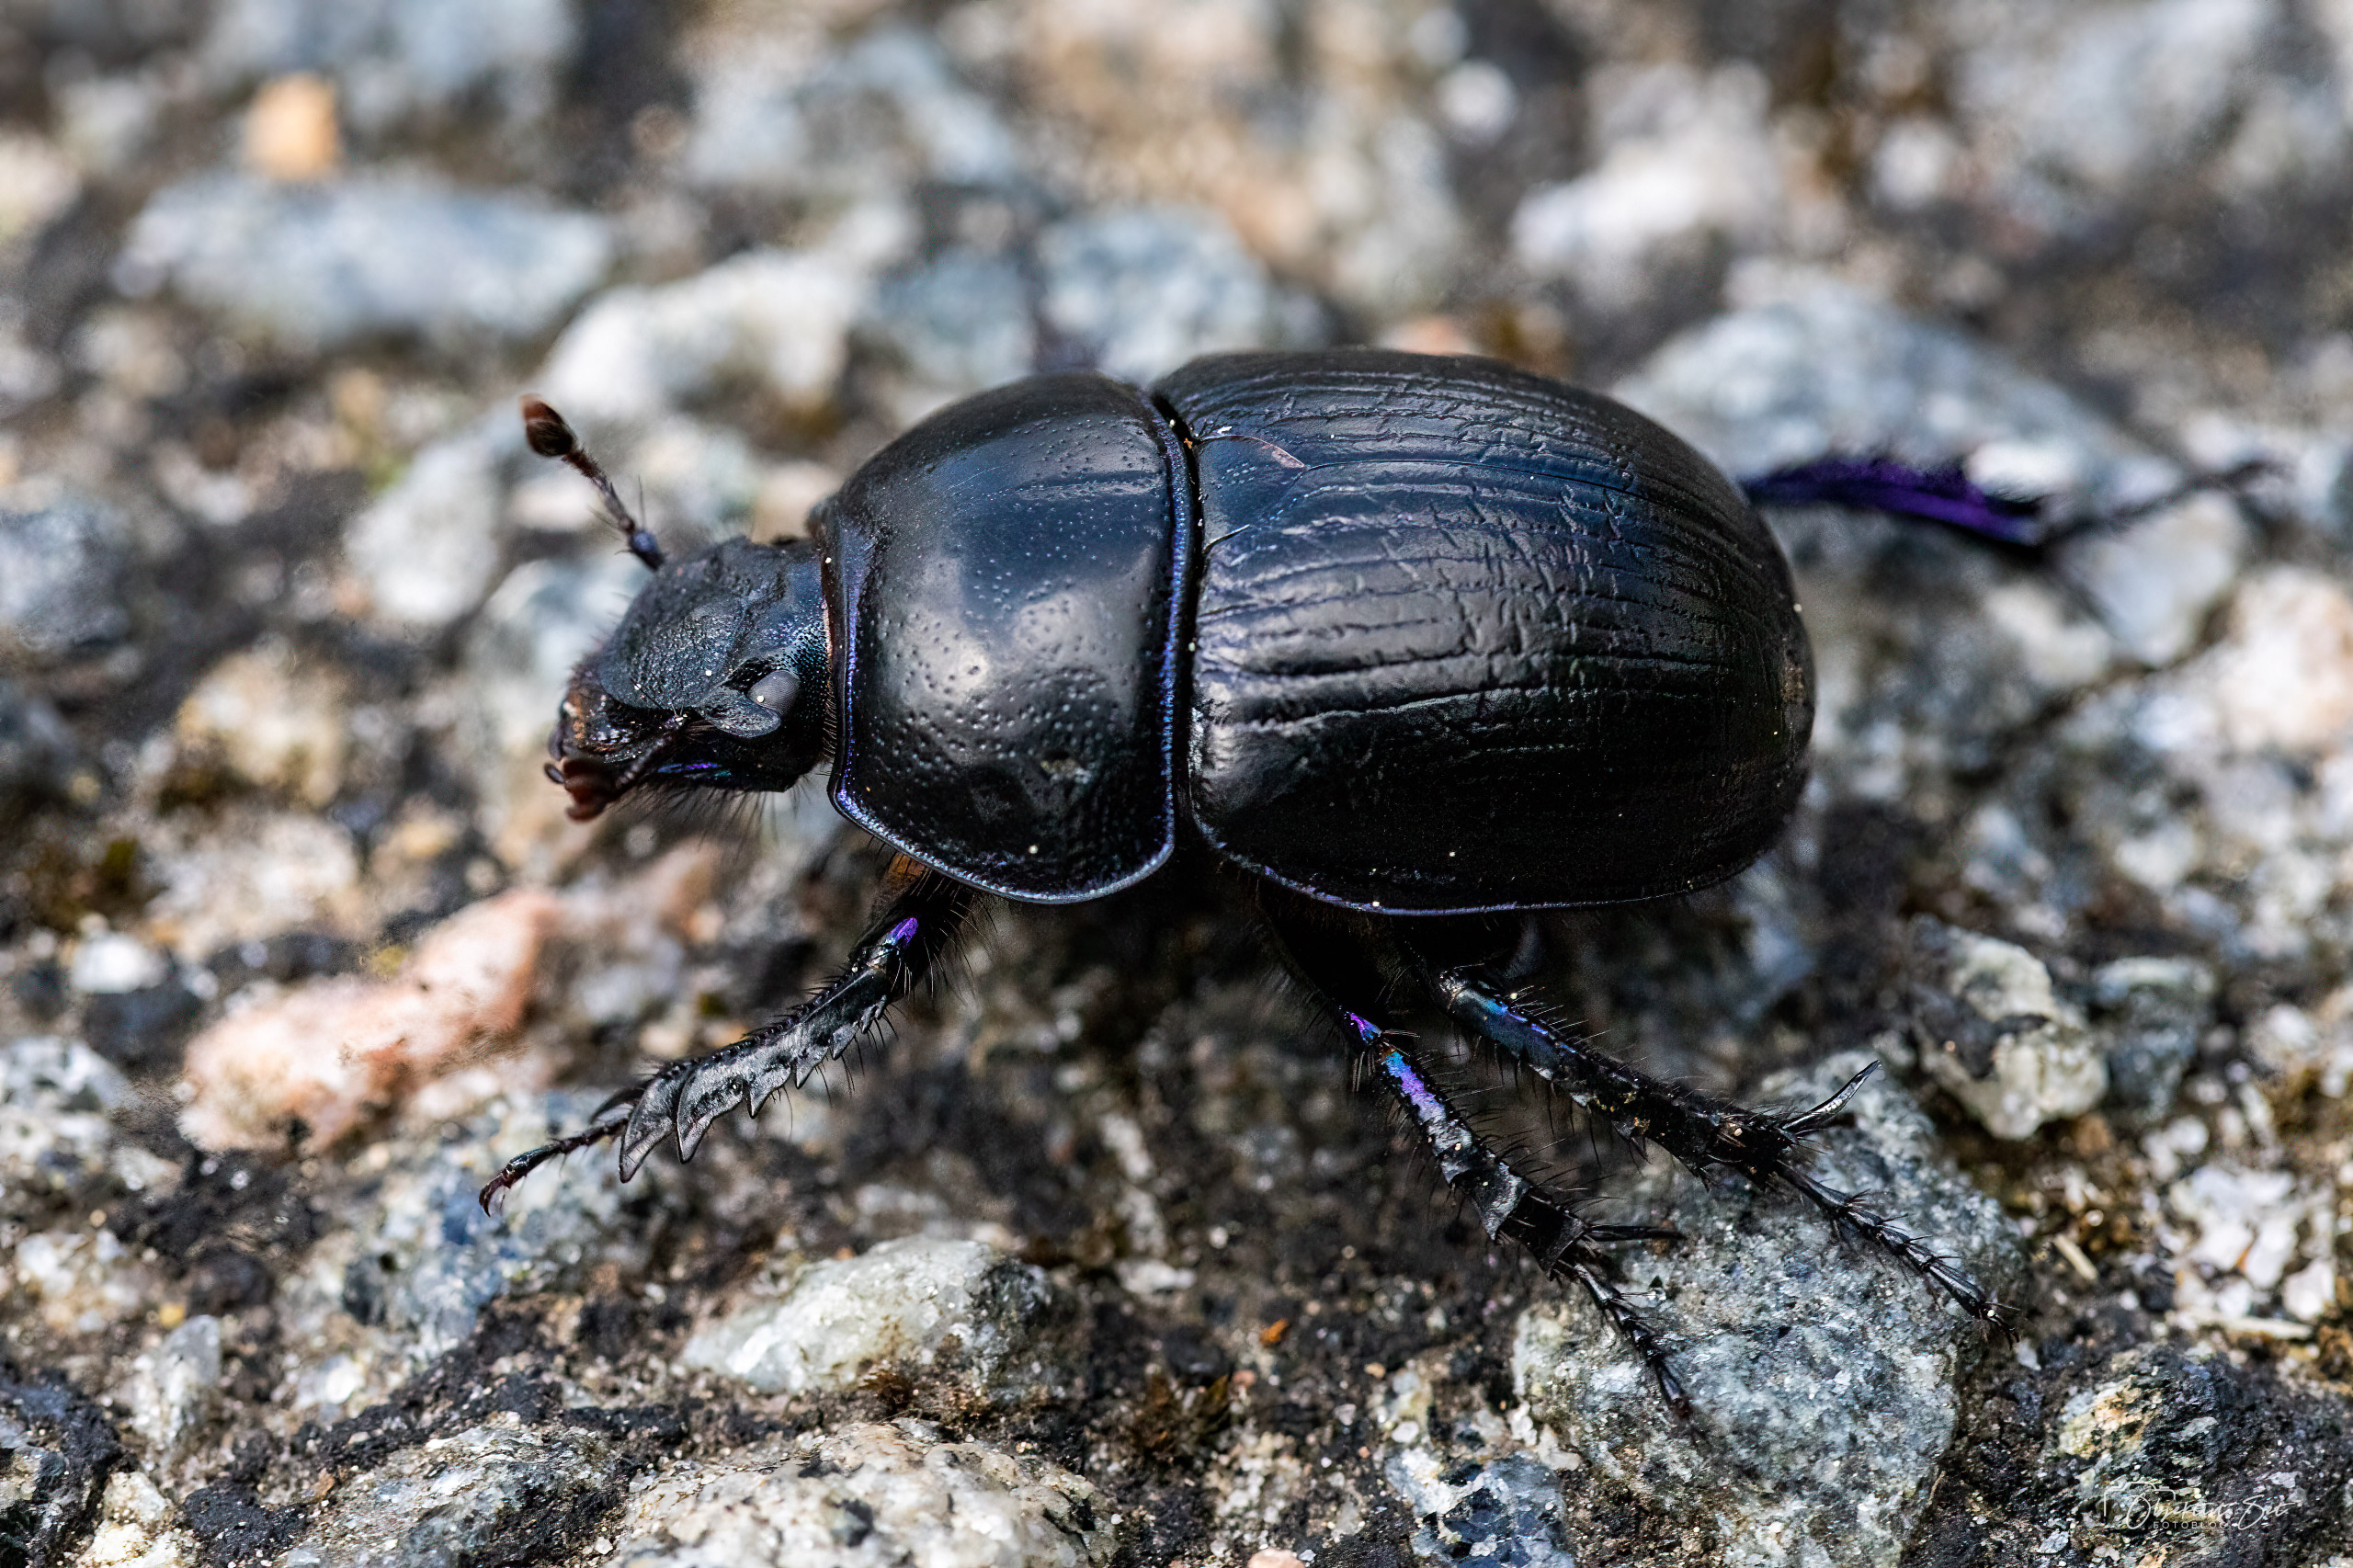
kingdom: Animalia
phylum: Arthropoda
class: Insecta
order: Coleoptera
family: Geotrupidae
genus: Anoplotrupes
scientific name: Anoplotrupes stercorosus
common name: Skovskarnbasse
